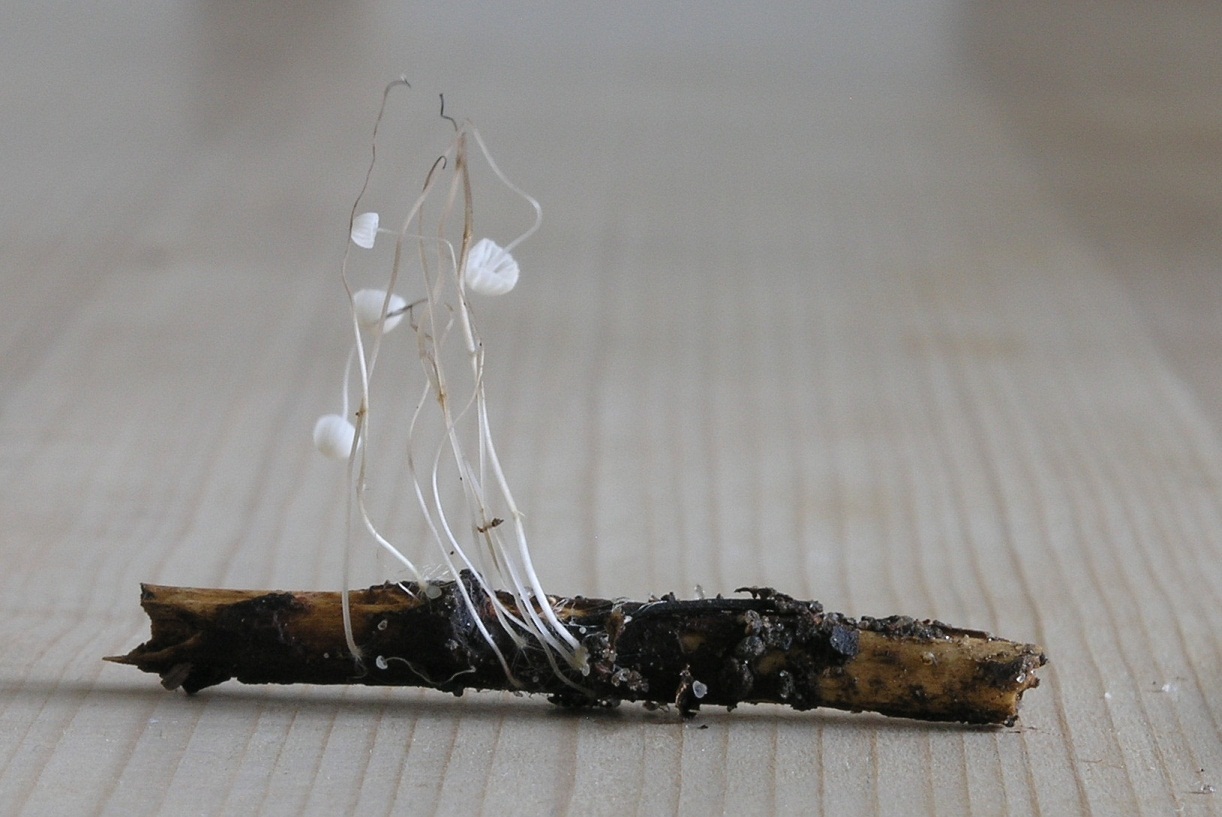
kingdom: Fungi
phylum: Basidiomycota
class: Agaricomycetes
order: Agaricales
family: Mycenaceae
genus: Mycena
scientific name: Mycena mirata
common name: krat-huesvamp
